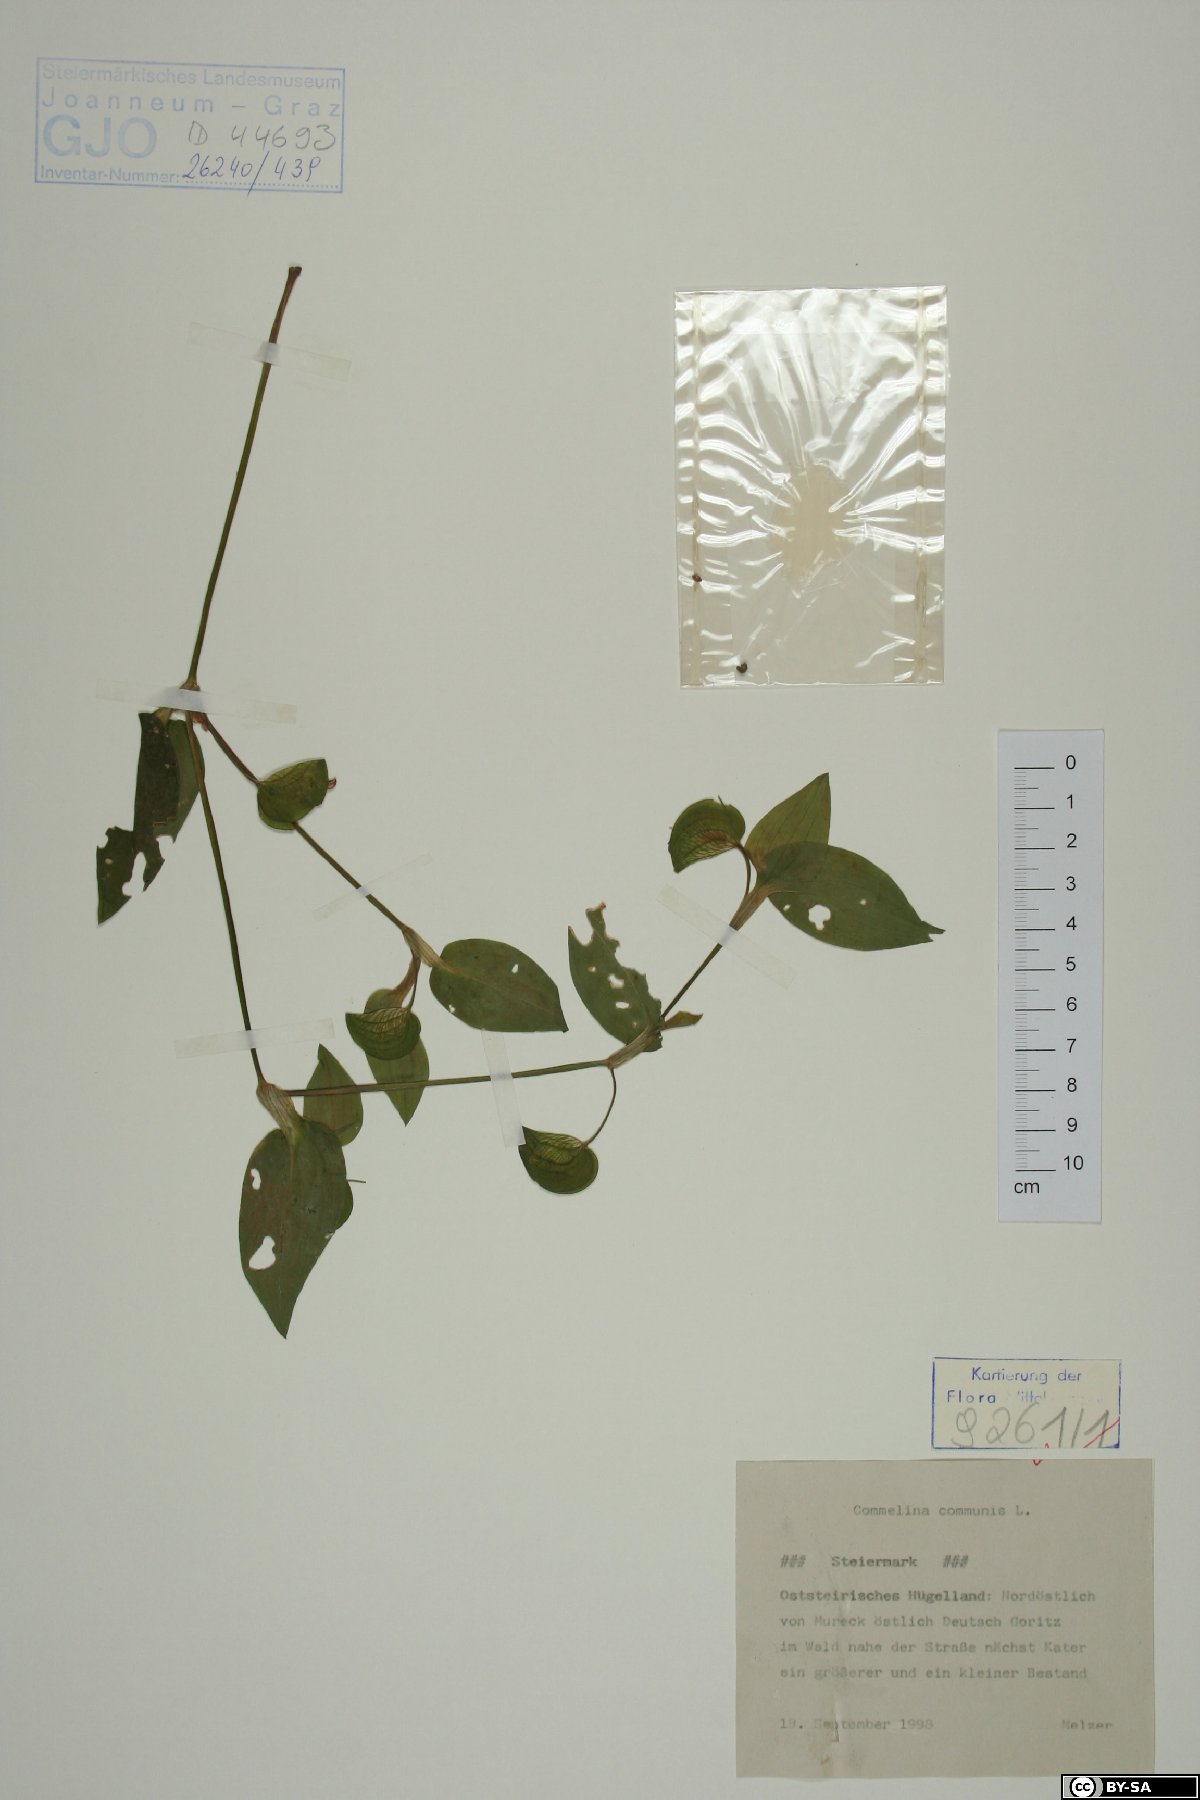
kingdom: Plantae
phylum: Tracheophyta
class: Liliopsida
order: Commelinales
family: Commelinaceae
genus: Commelina
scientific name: Commelina communis
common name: Asiatic dayflower
